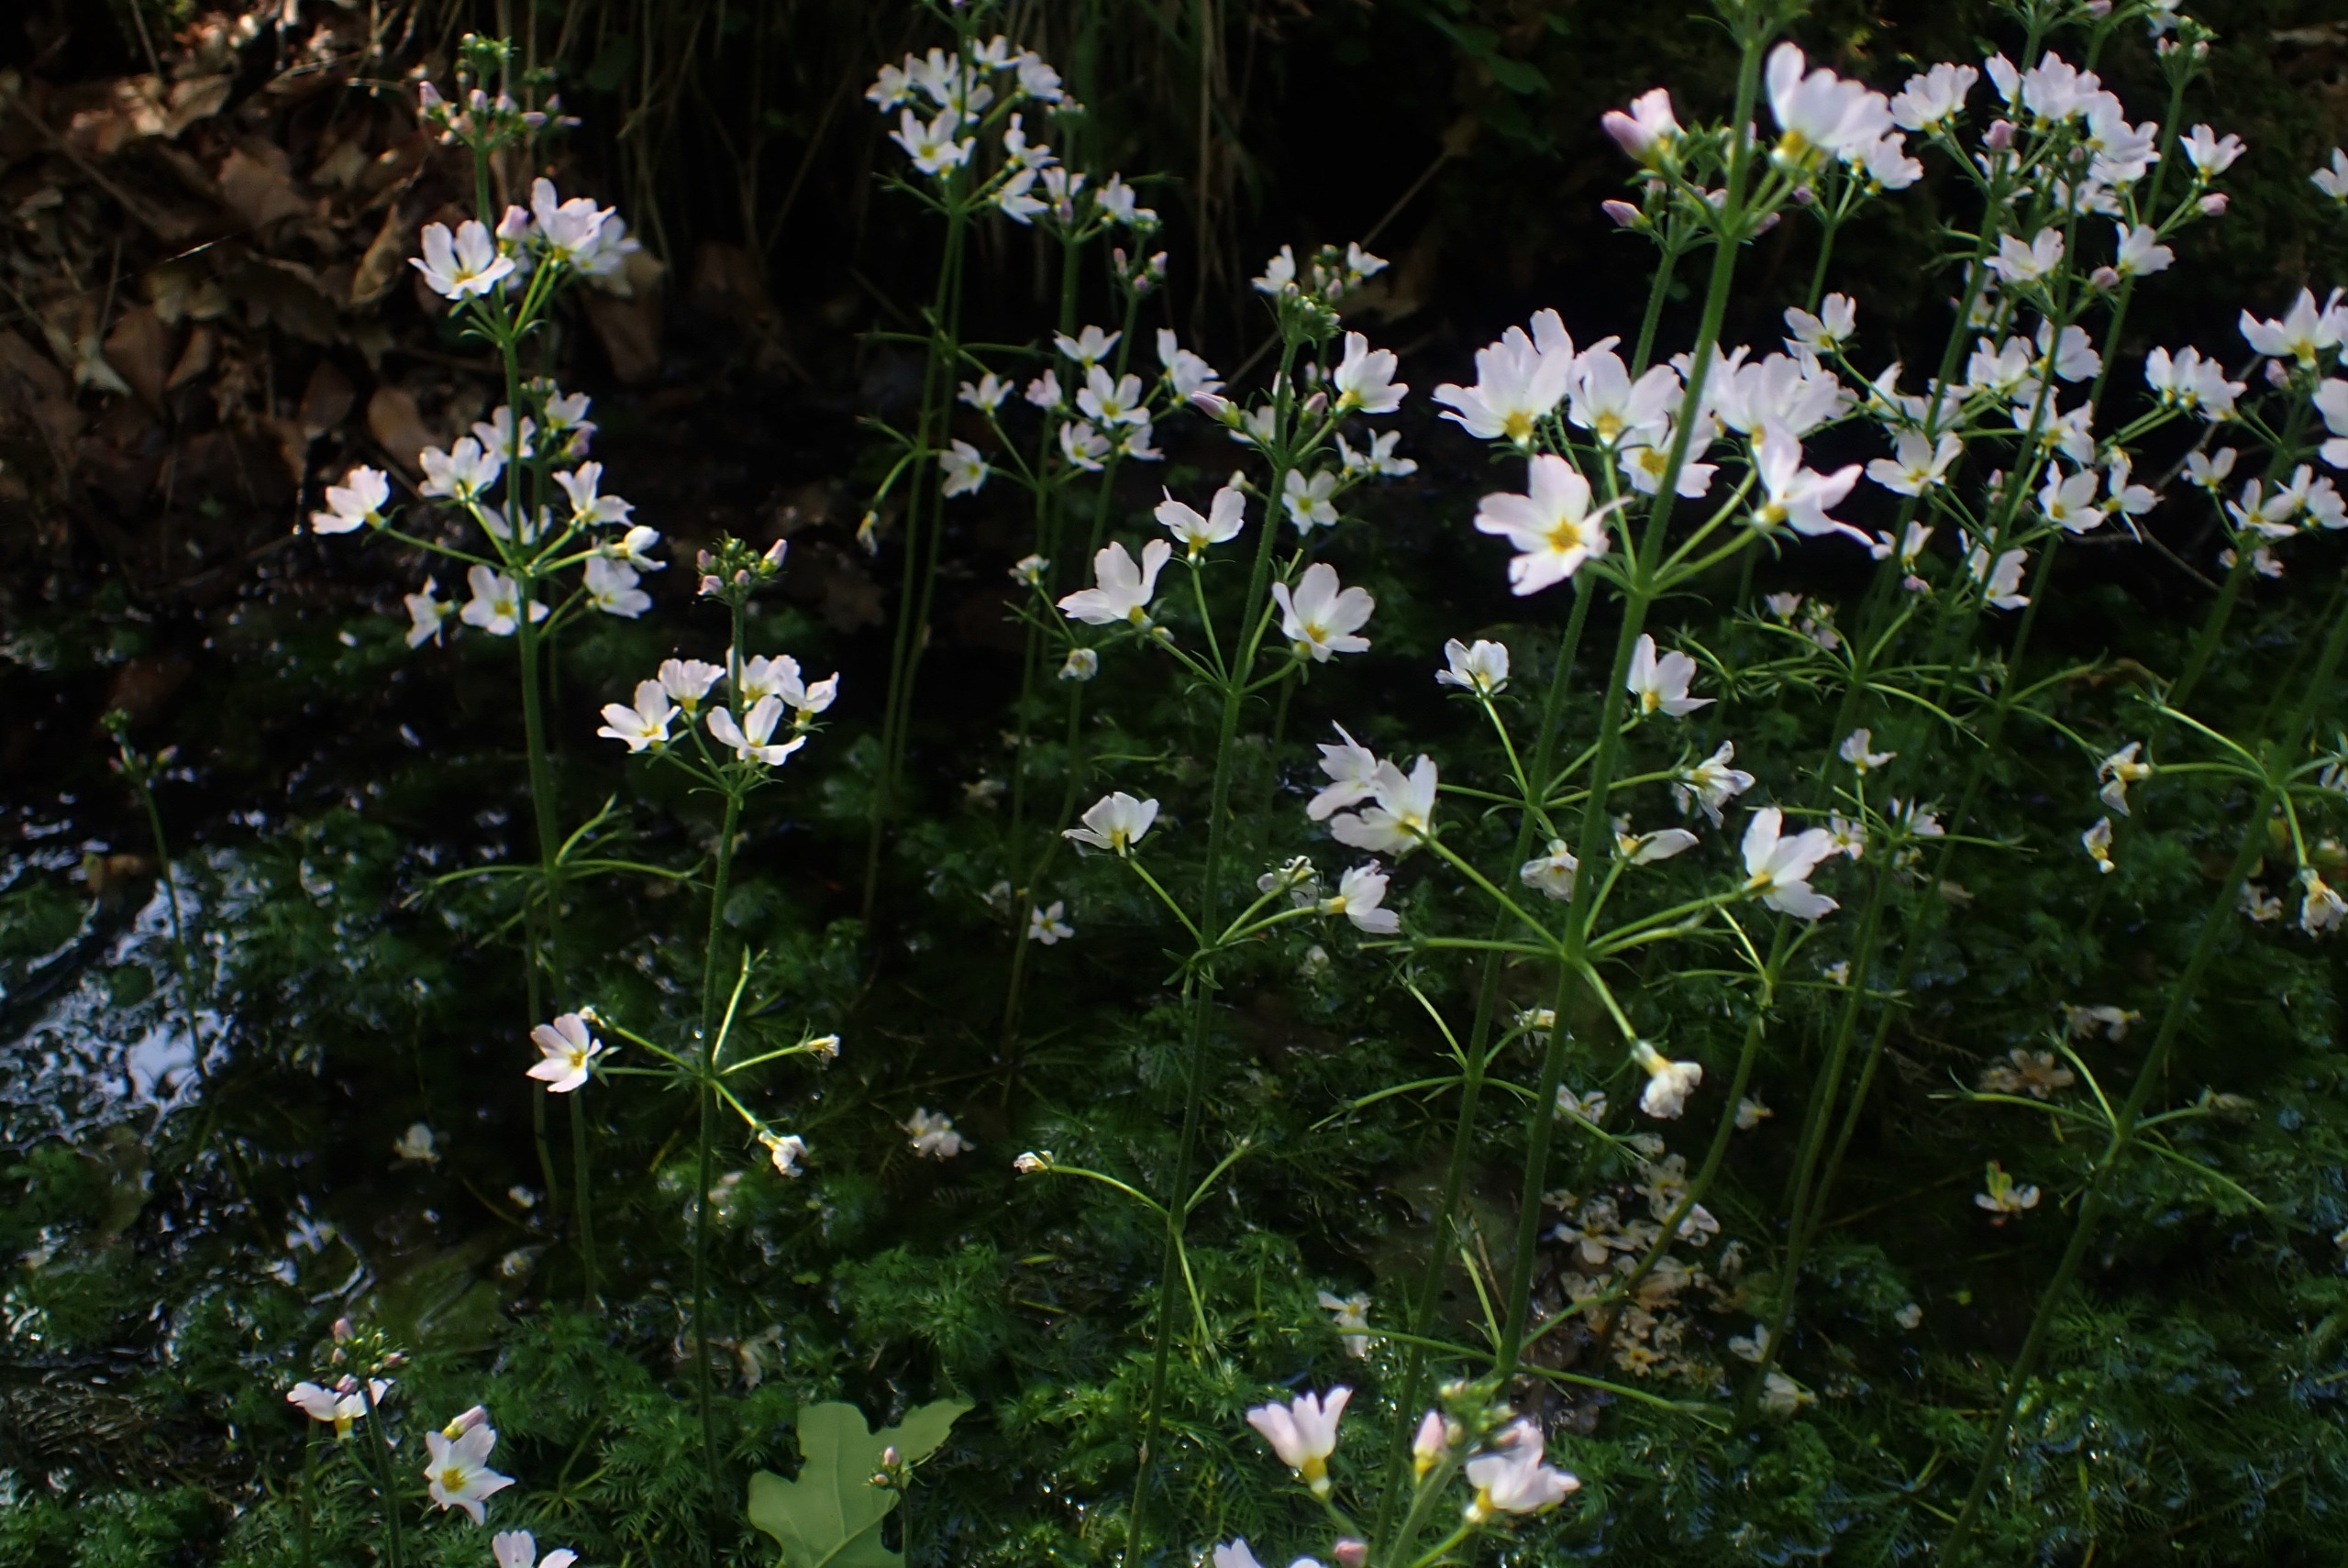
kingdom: Plantae
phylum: Tracheophyta
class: Magnoliopsida
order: Ericales
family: Primulaceae
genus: Hottonia
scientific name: Hottonia palustris
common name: Vandrøllike
